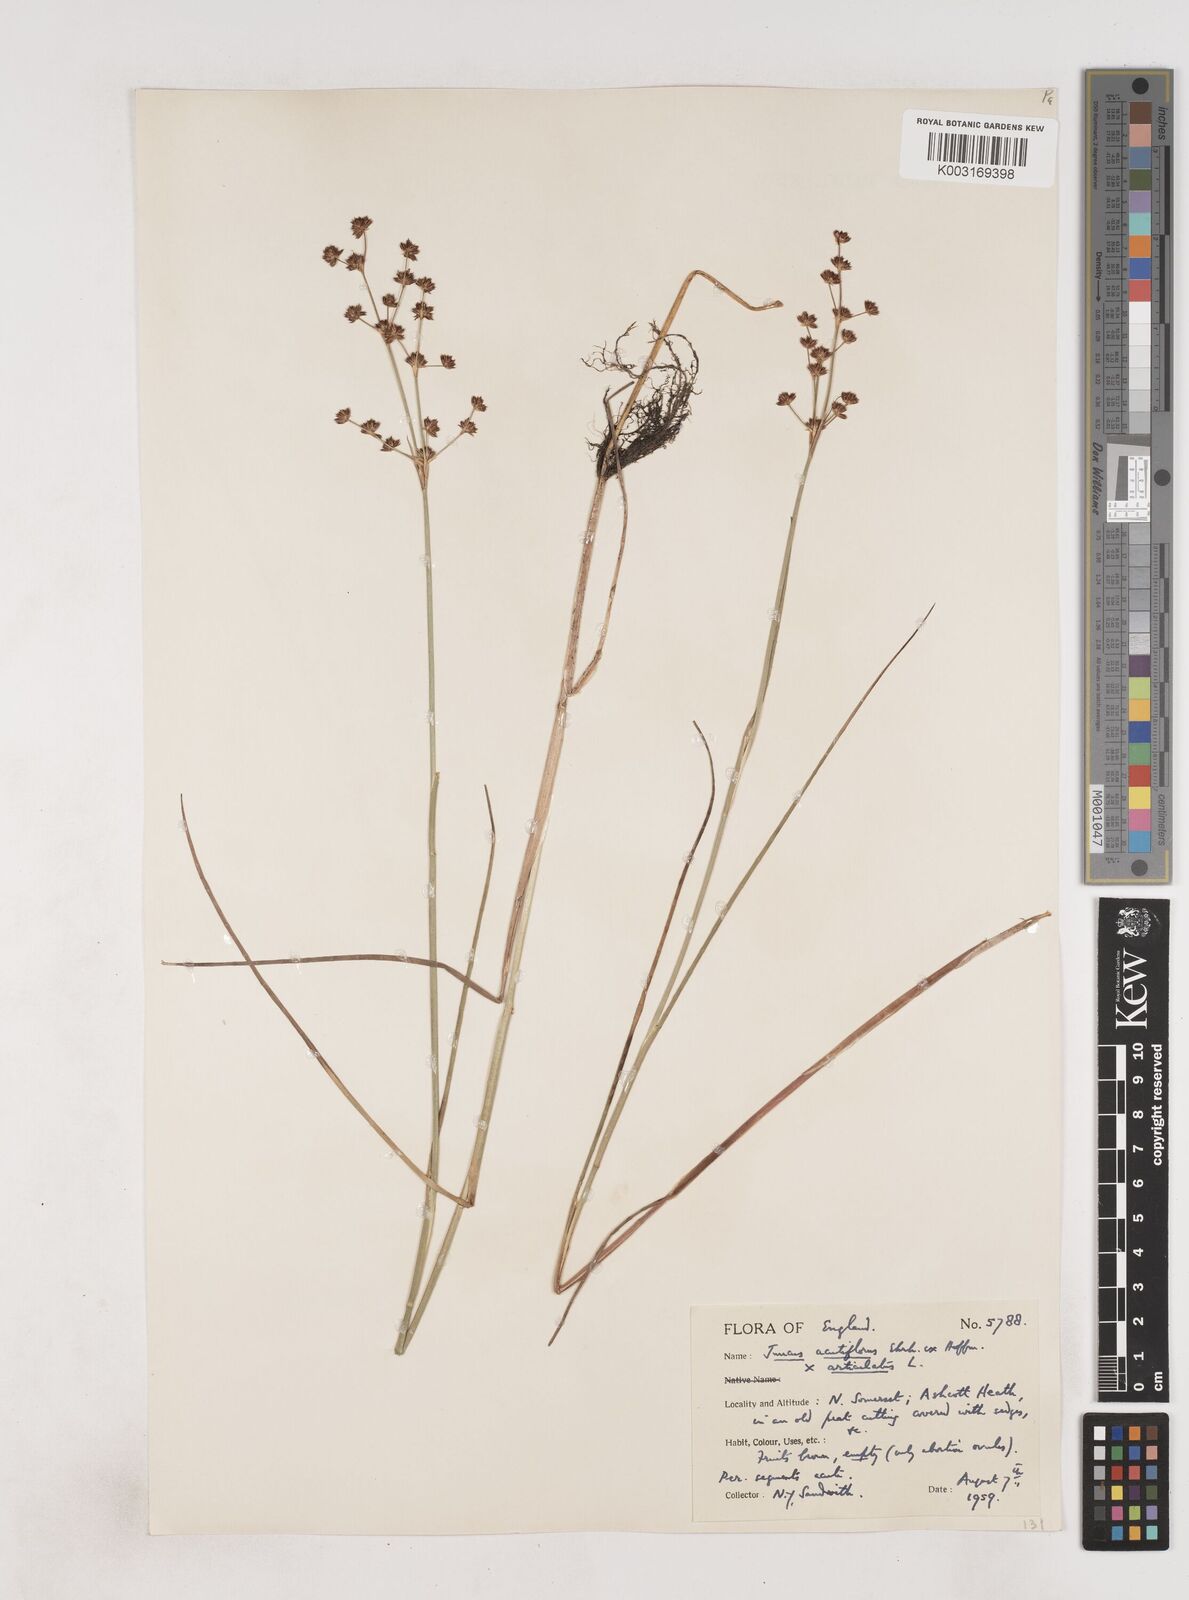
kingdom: Plantae
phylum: Tracheophyta
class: Liliopsida
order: Poales
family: Juncaceae
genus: Juncus
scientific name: Juncus acutiflorus
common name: Sharp-flowered rush
